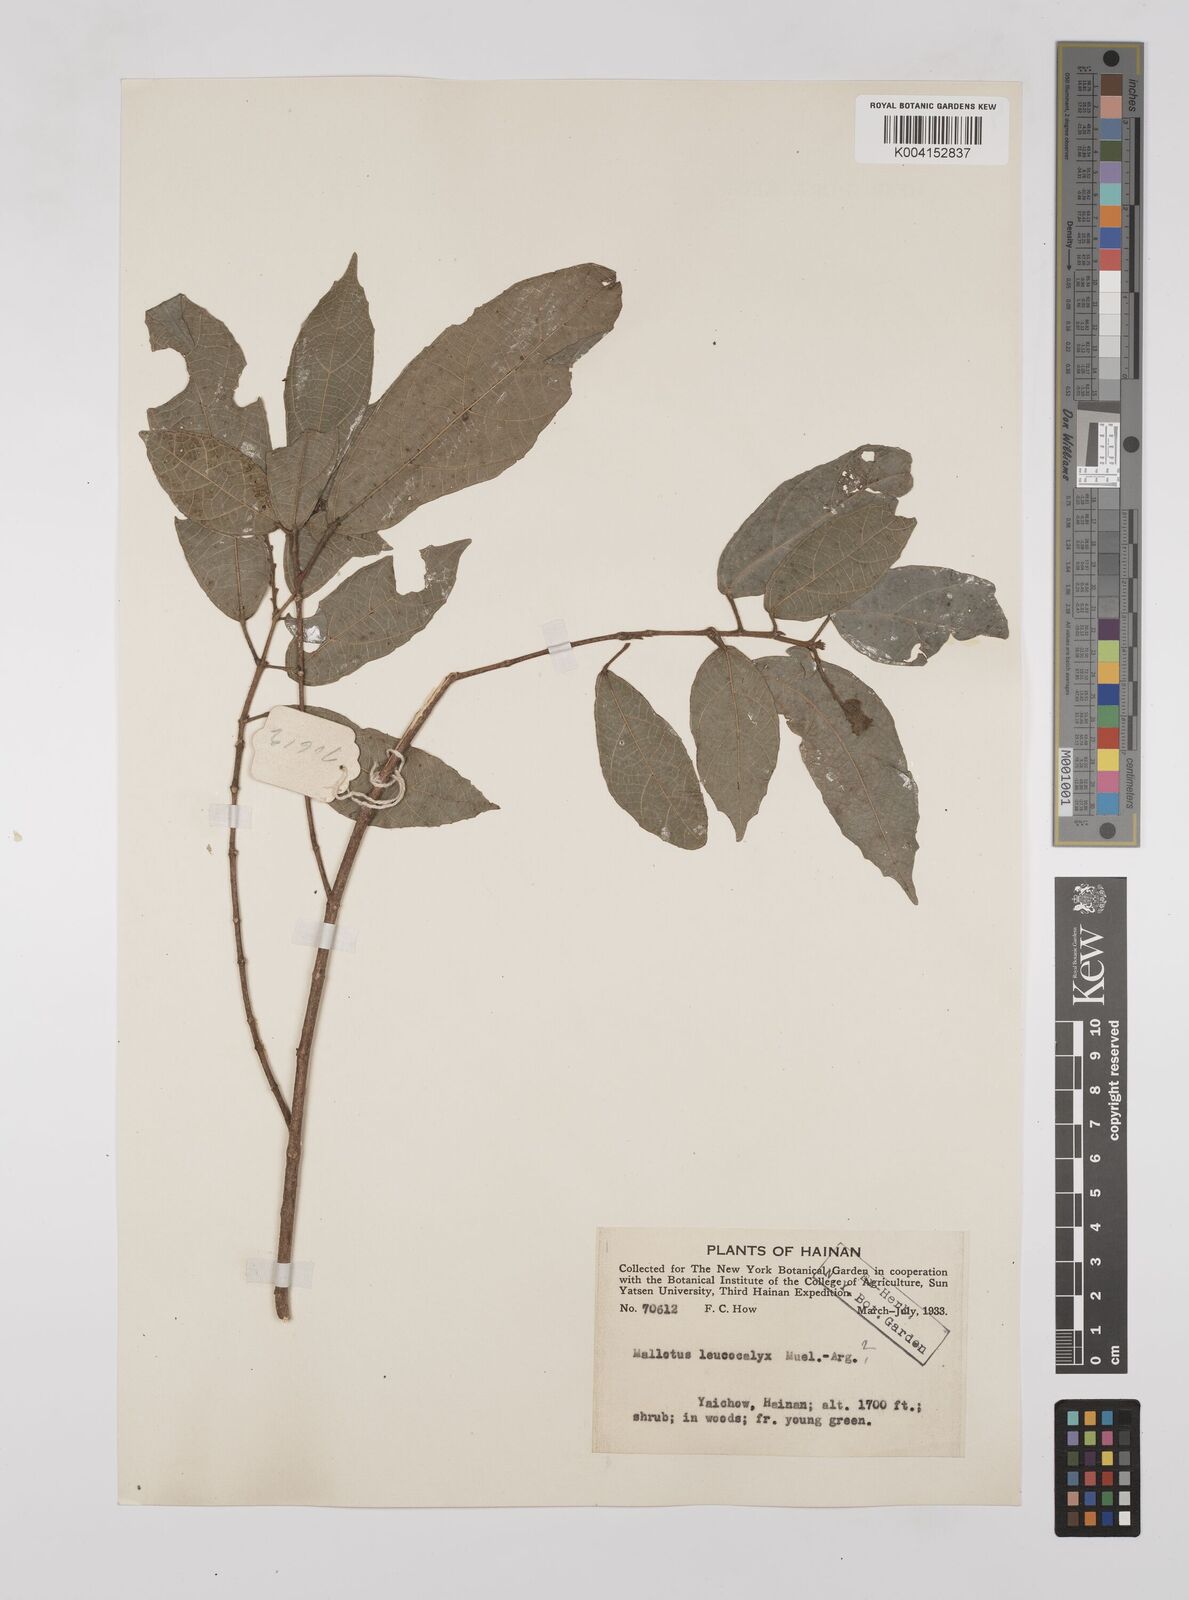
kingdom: Plantae
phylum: Tracheophyta
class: Magnoliopsida
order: Malpighiales
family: Euphorbiaceae
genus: Mallotus
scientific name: Mallotus yunnanensis
